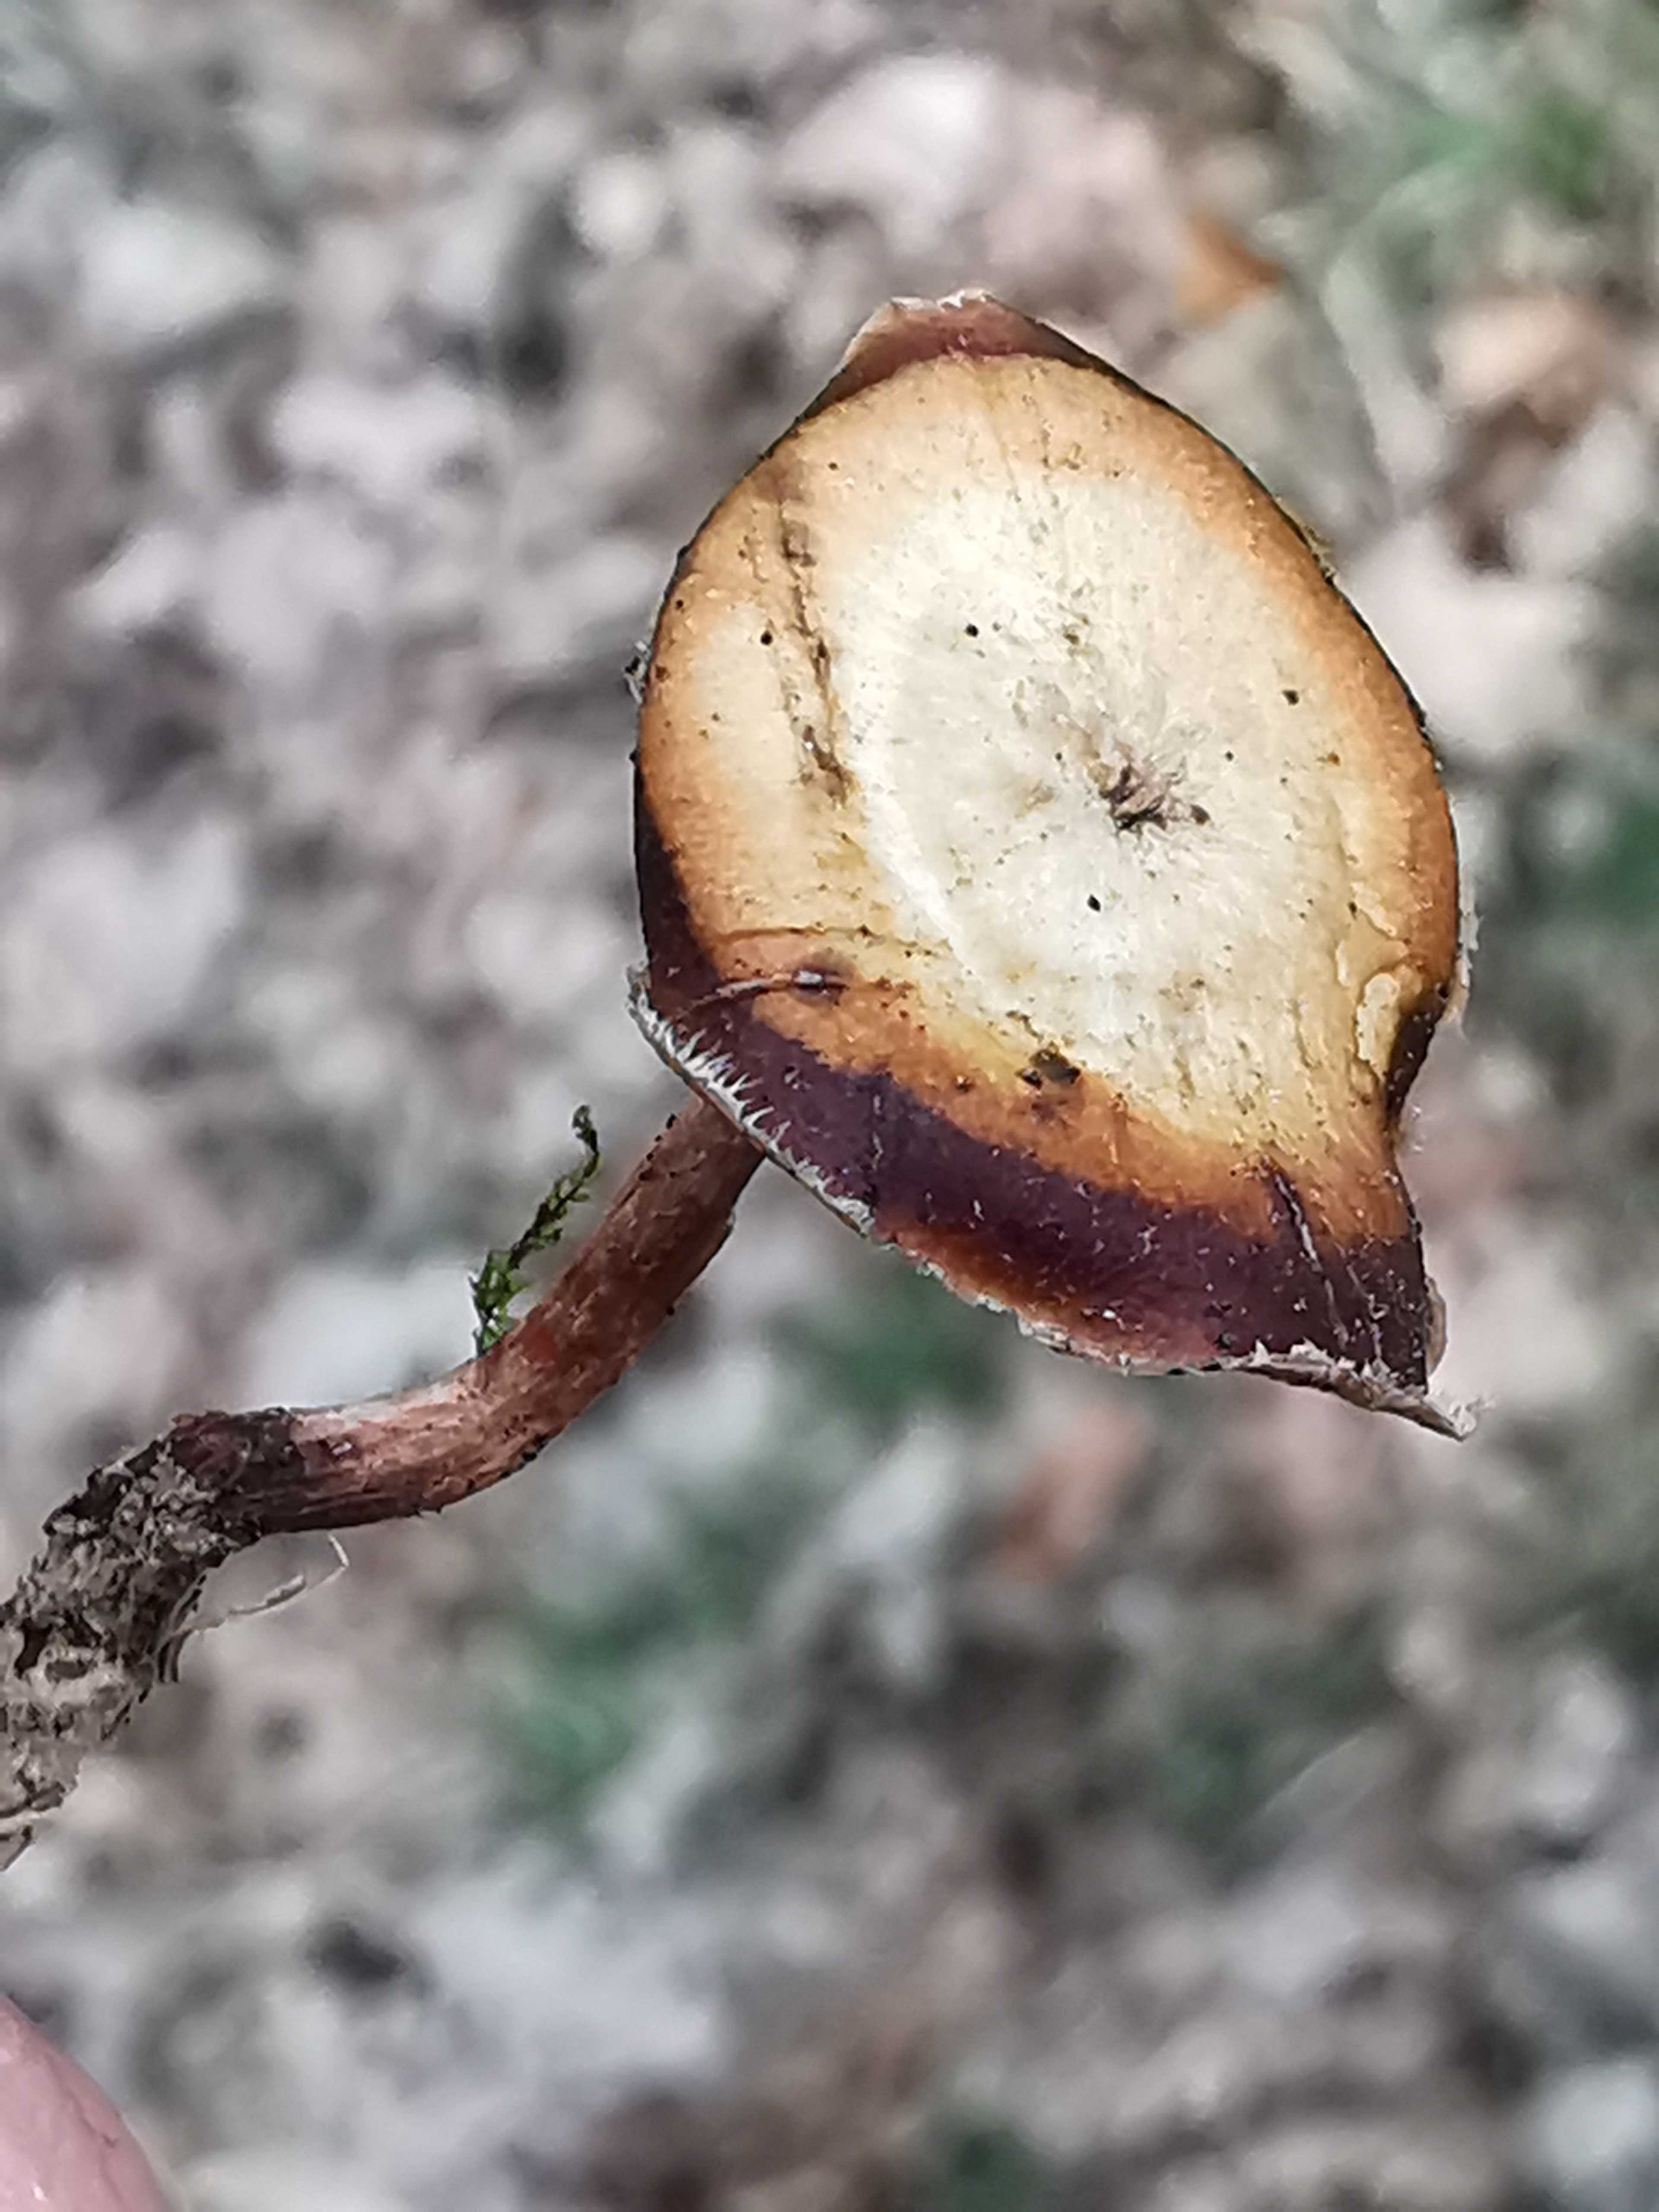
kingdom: Fungi
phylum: Basidiomycota
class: Agaricomycetes
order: Polyporales
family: Polyporaceae
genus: Lentinus
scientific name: Lentinus brumalis
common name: vinter-stilkporesvamp
